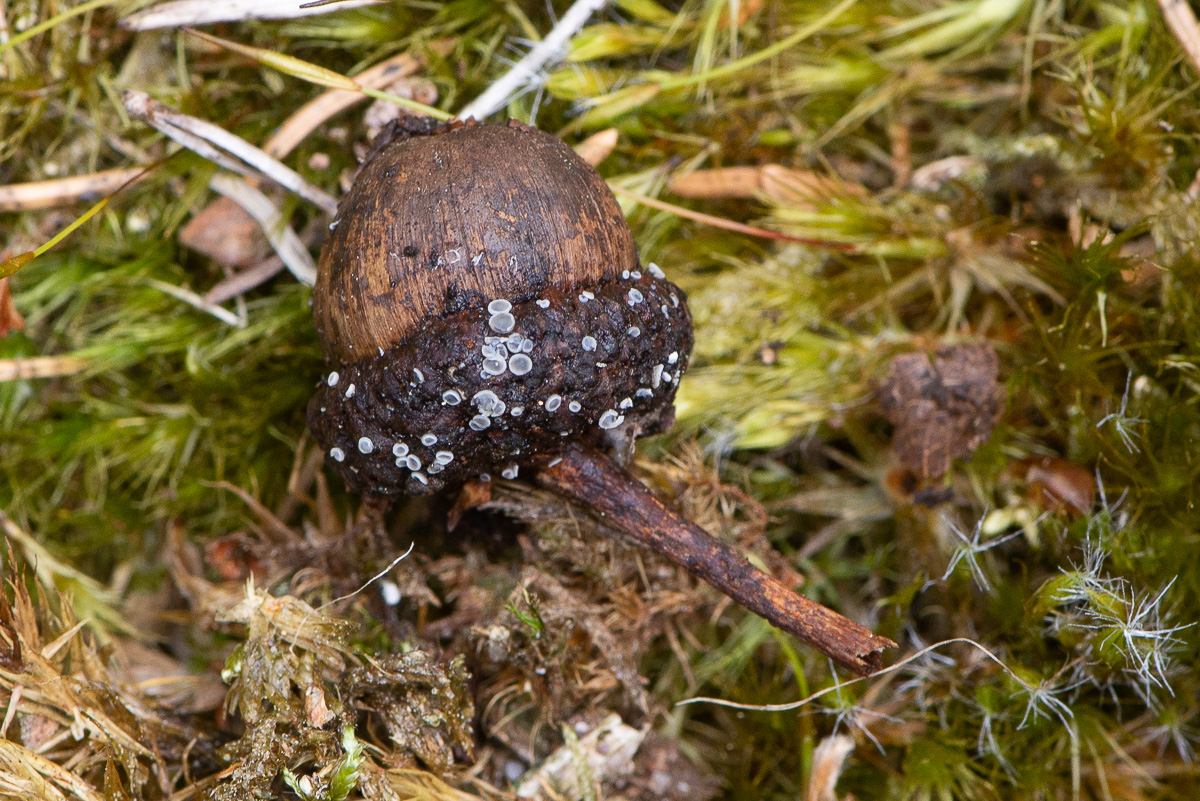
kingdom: Fungi
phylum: Ascomycota
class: Leotiomycetes
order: Helotiales
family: Mollisiaceae
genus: Mollisia
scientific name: Mollisia
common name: gråskive
